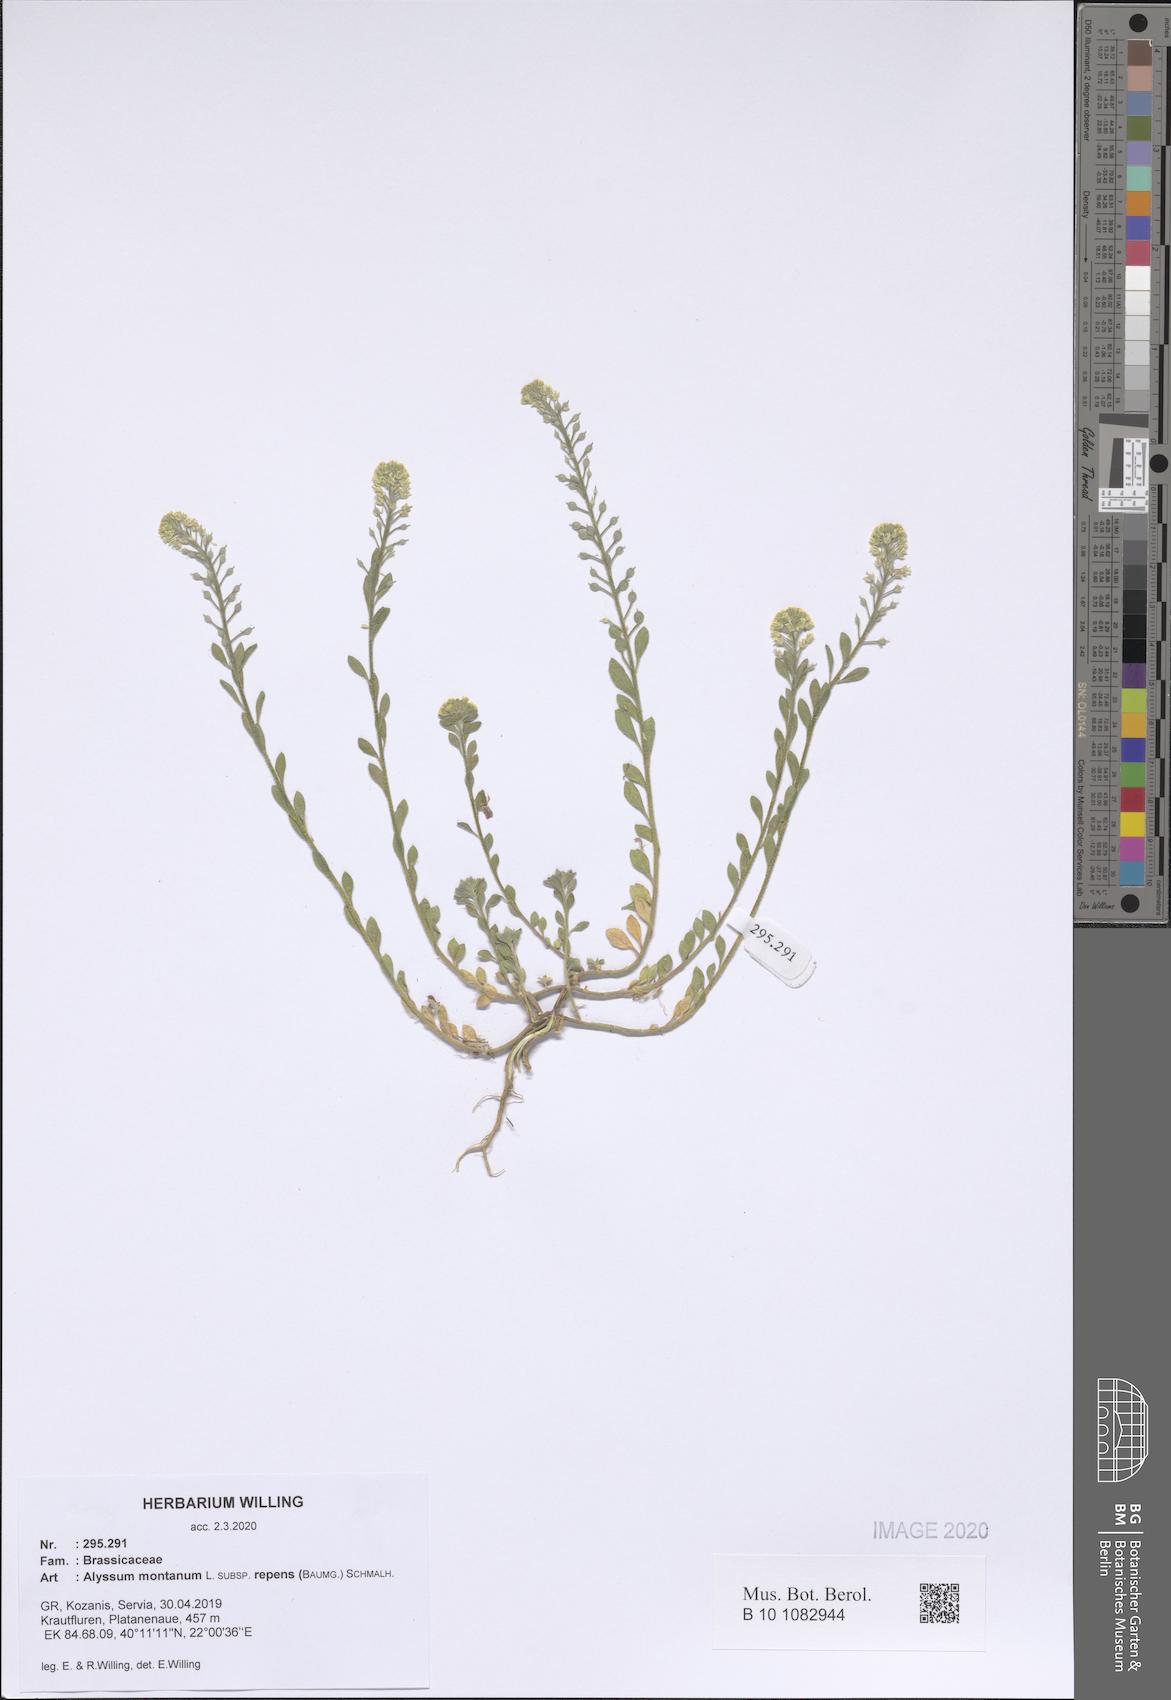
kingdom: Plantae
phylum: Tracheophyta
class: Magnoliopsida
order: Brassicales
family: Brassicaceae
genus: Alyssum
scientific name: Alyssum trichostachyum
